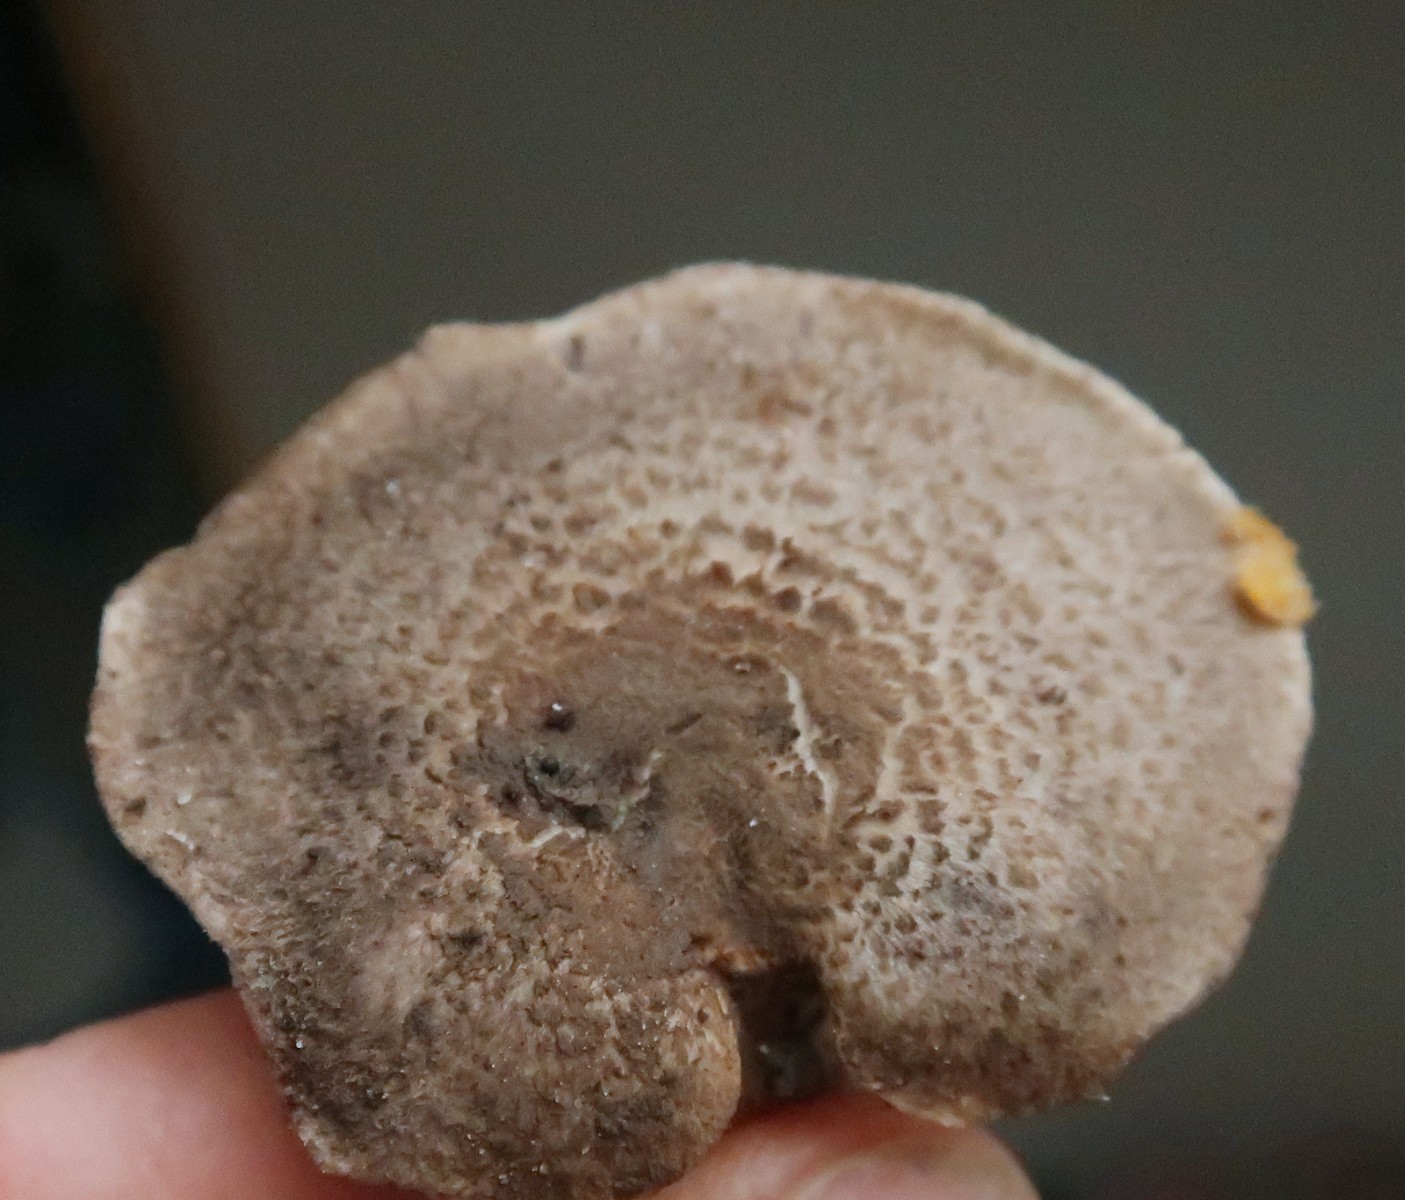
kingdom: Fungi
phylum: Basidiomycota
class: Agaricomycetes
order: Agaricales
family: Tricholomataceae
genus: Tricholoma
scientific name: Tricholoma terreum
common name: jordfarvet ridderhat
